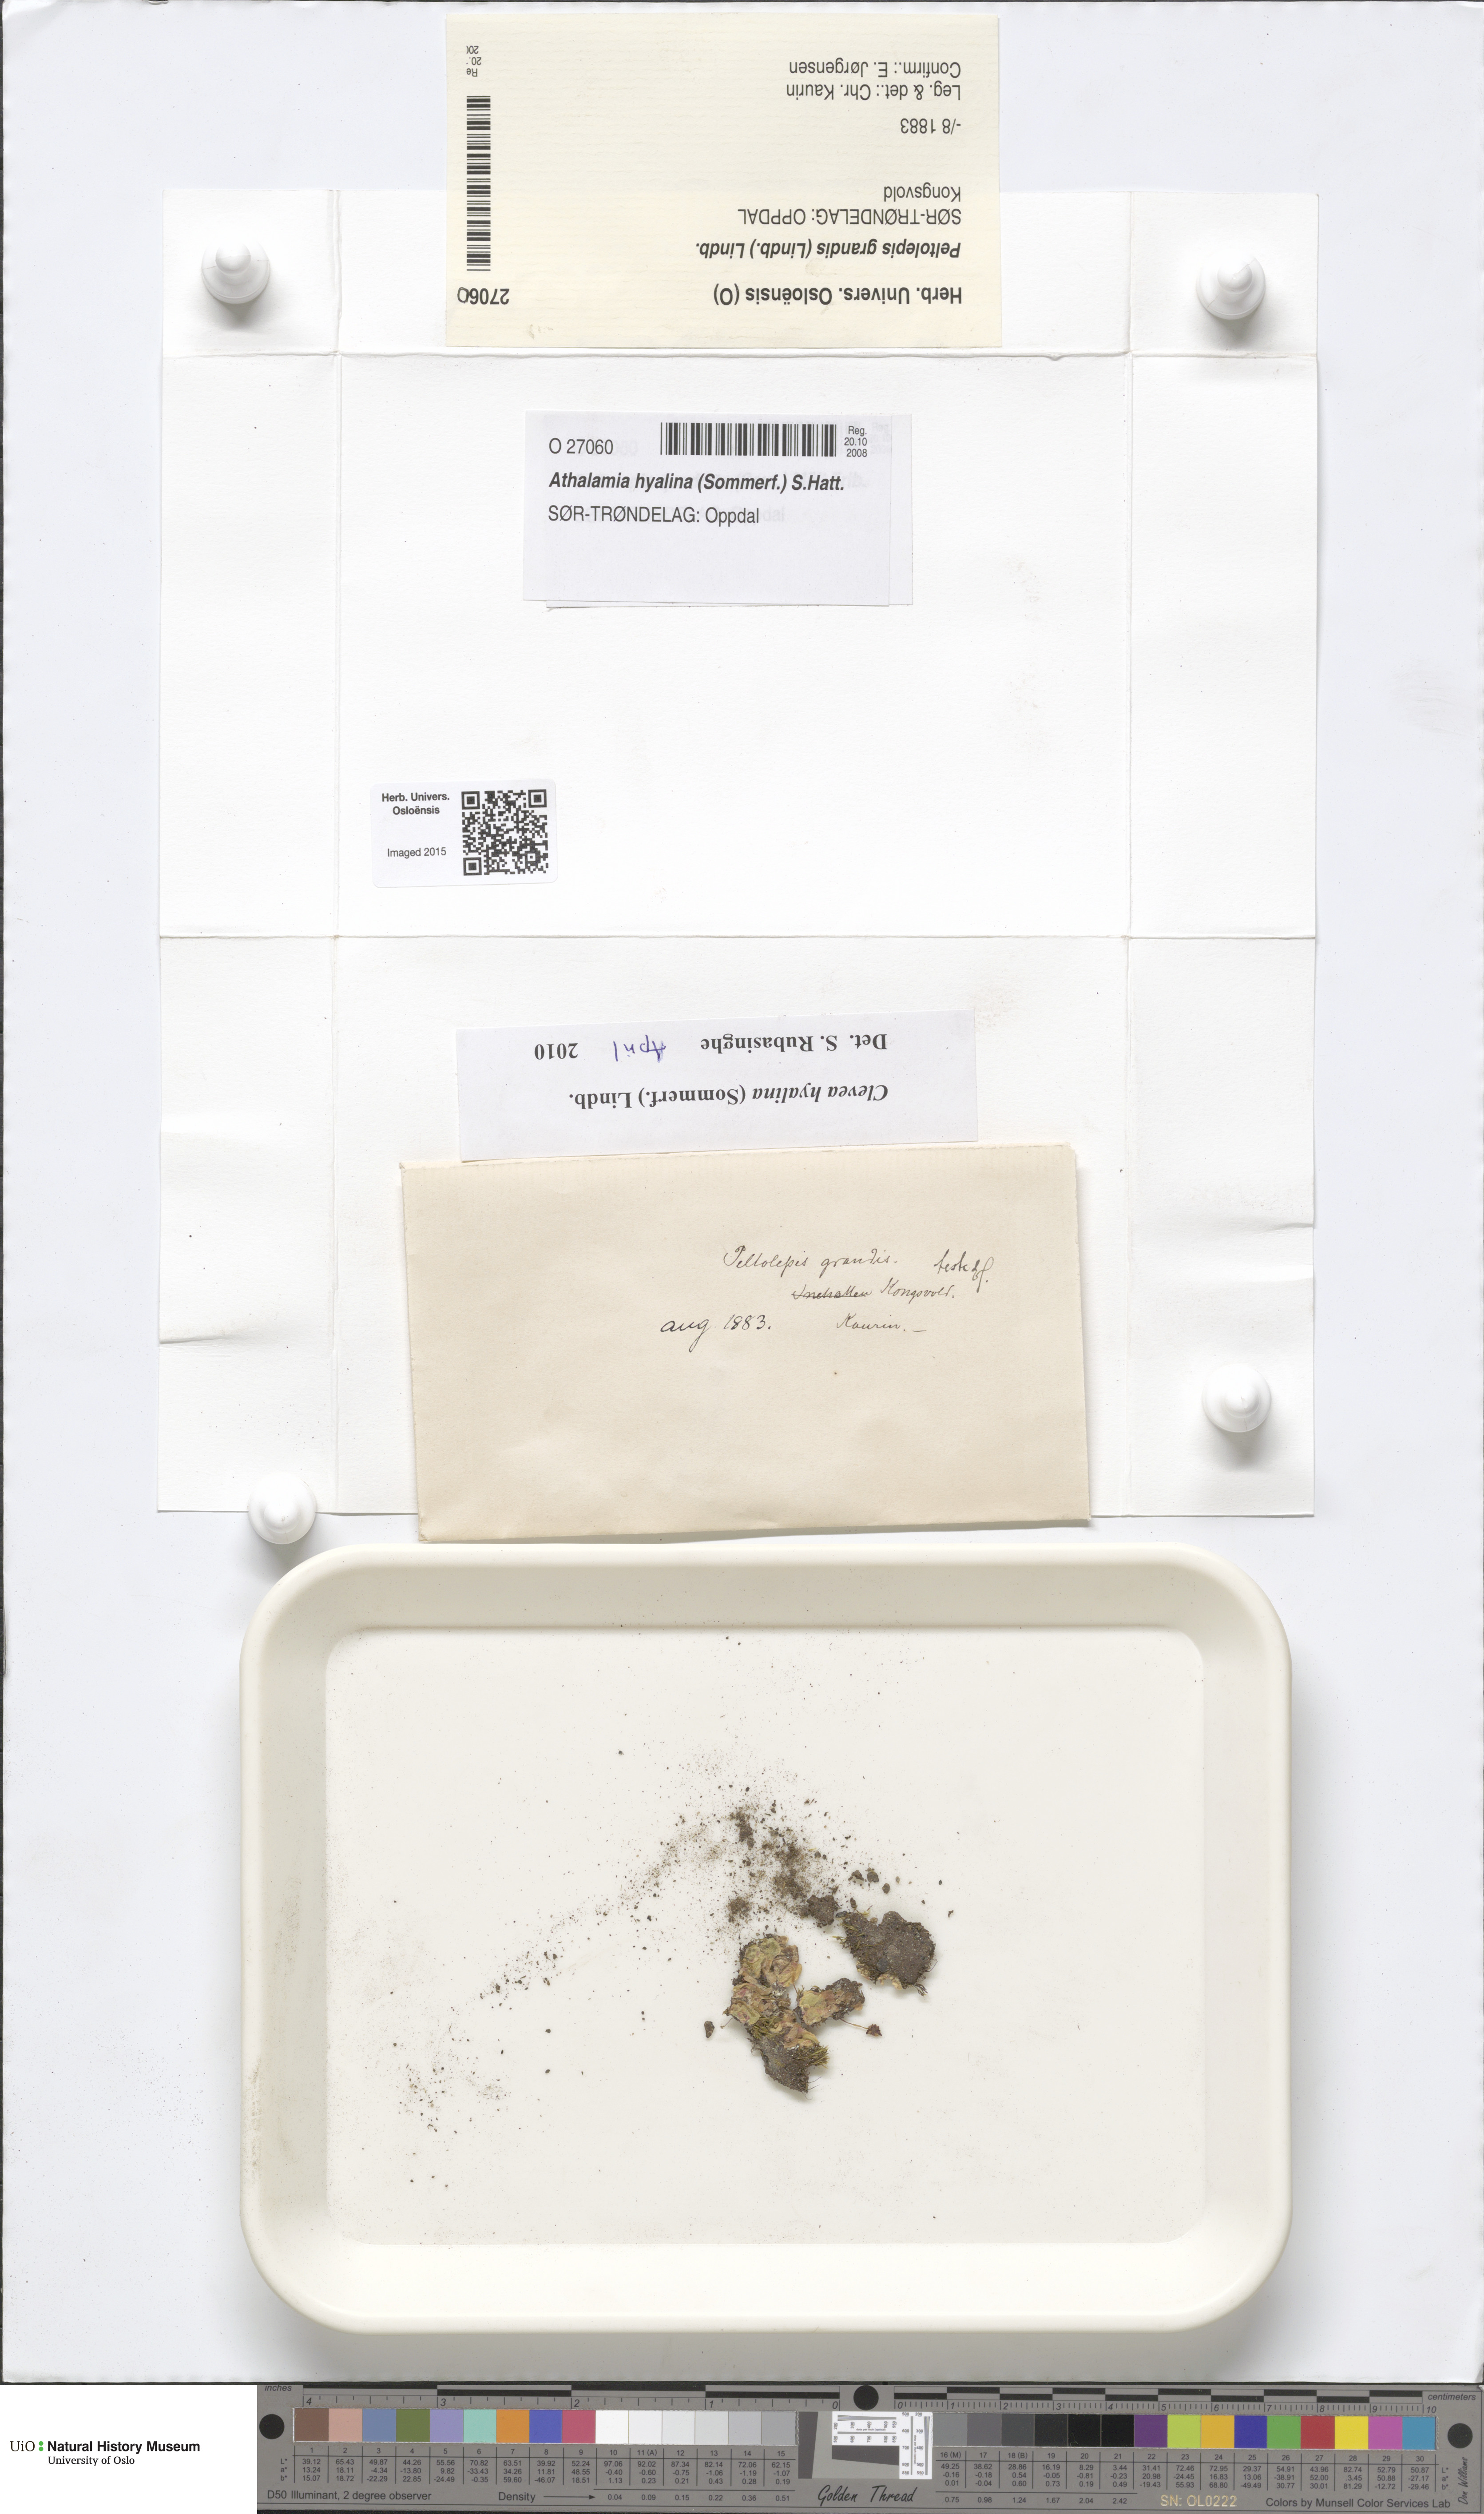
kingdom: Plantae
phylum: Marchantiophyta
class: Marchantiopsida
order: Marchantiales
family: Cleveaceae
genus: Clevea
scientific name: Clevea hyalina
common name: Hyaline liverwort
